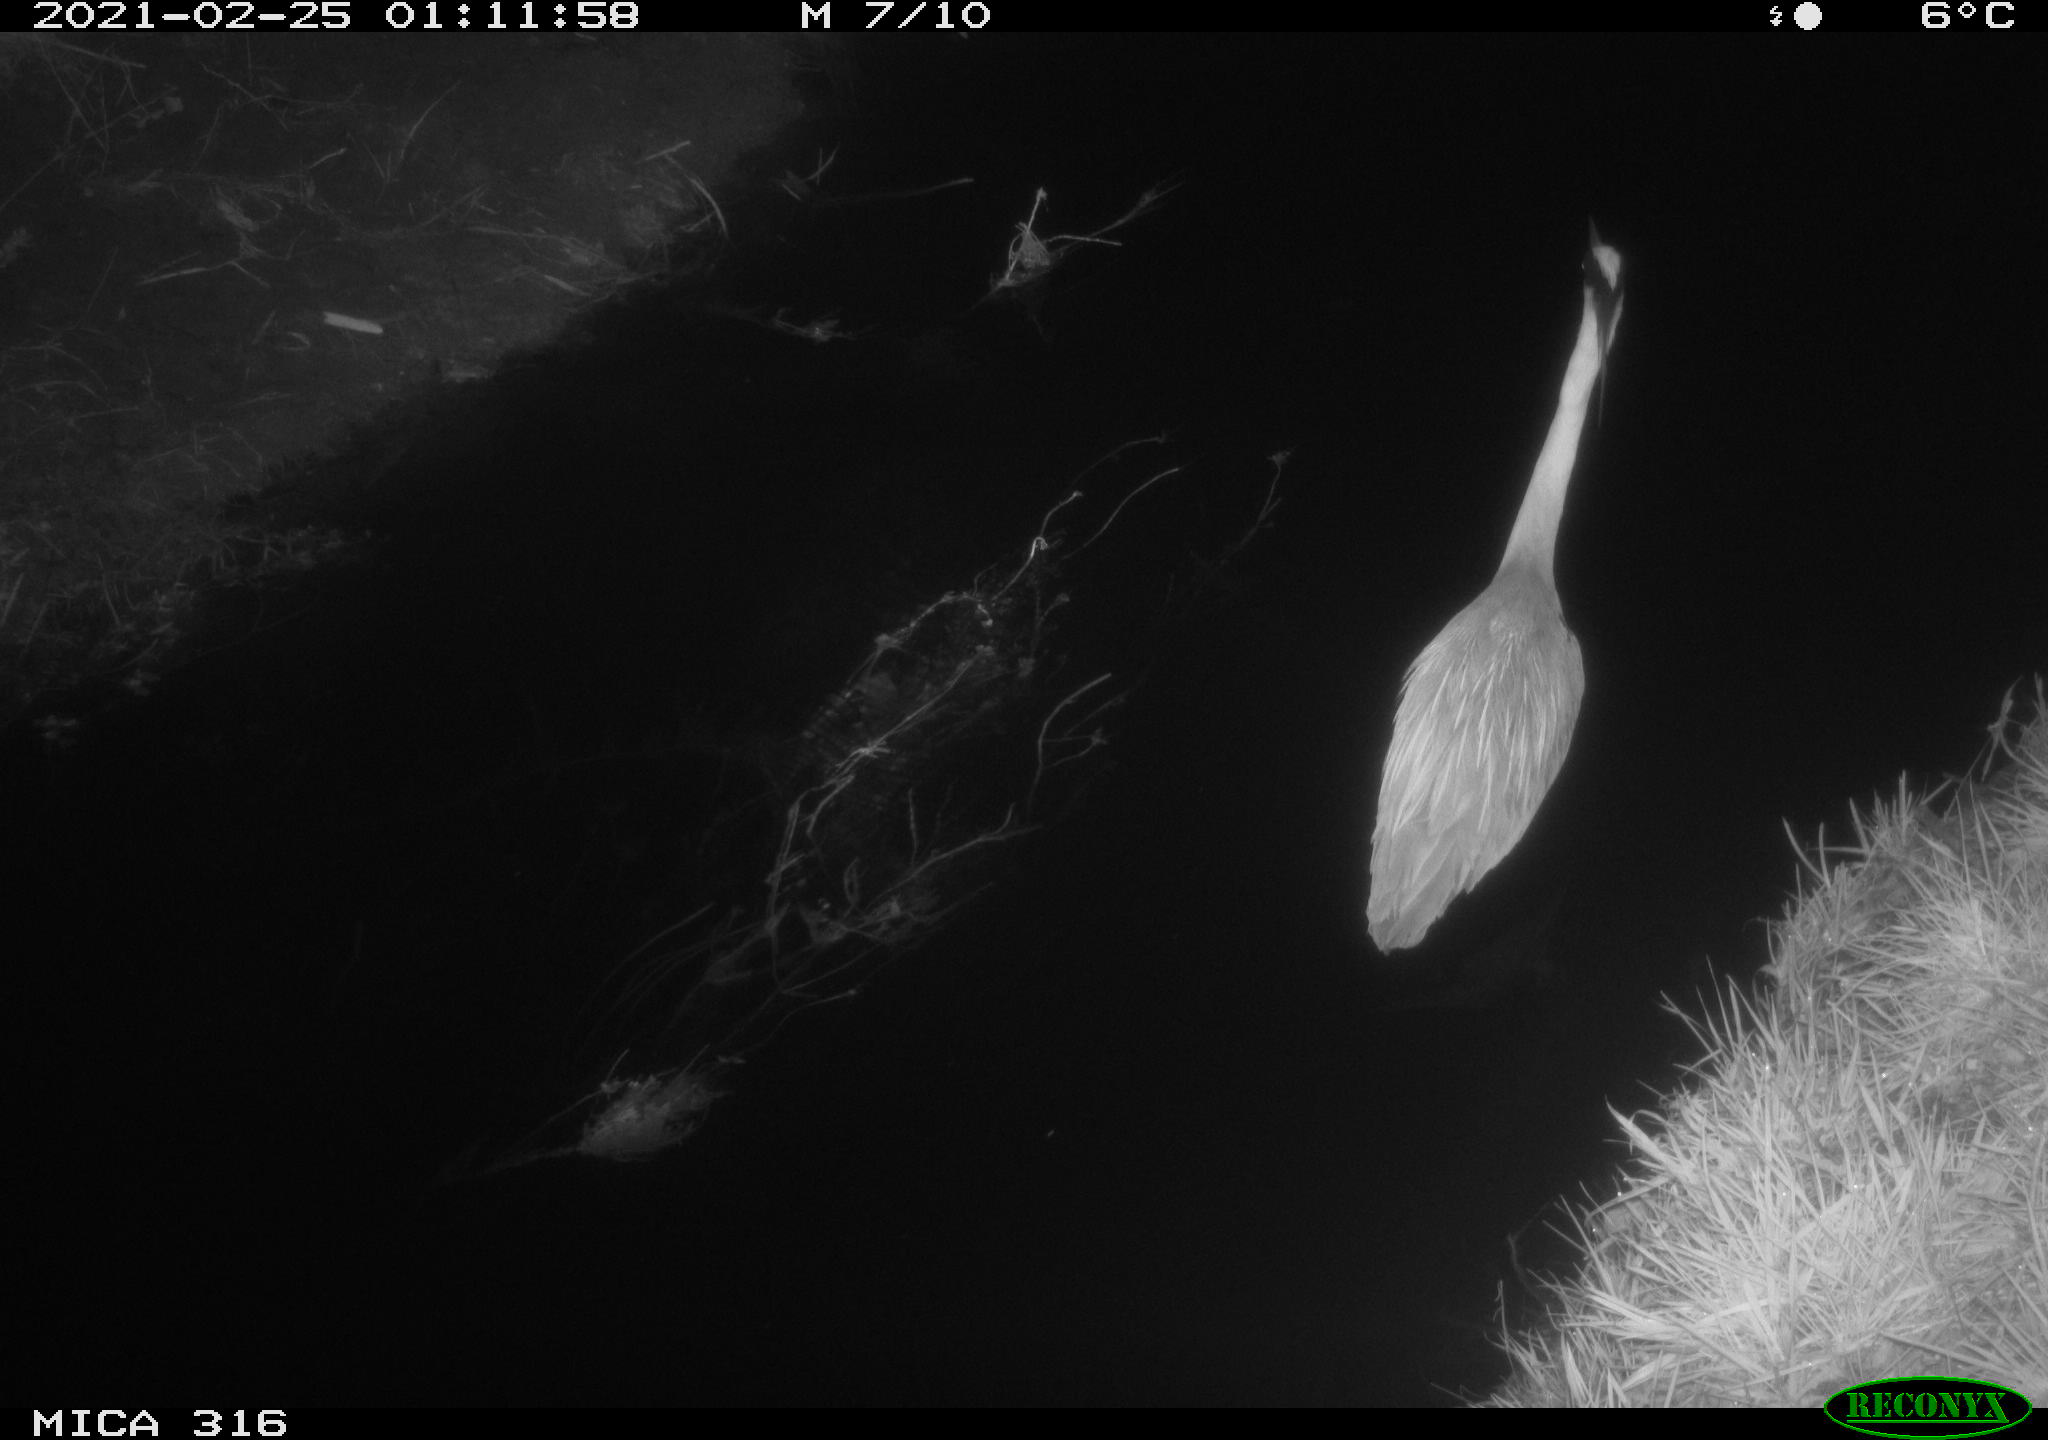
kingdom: Animalia
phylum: Chordata
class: Aves
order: Pelecaniformes
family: Ardeidae
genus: Ardea
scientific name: Ardea
